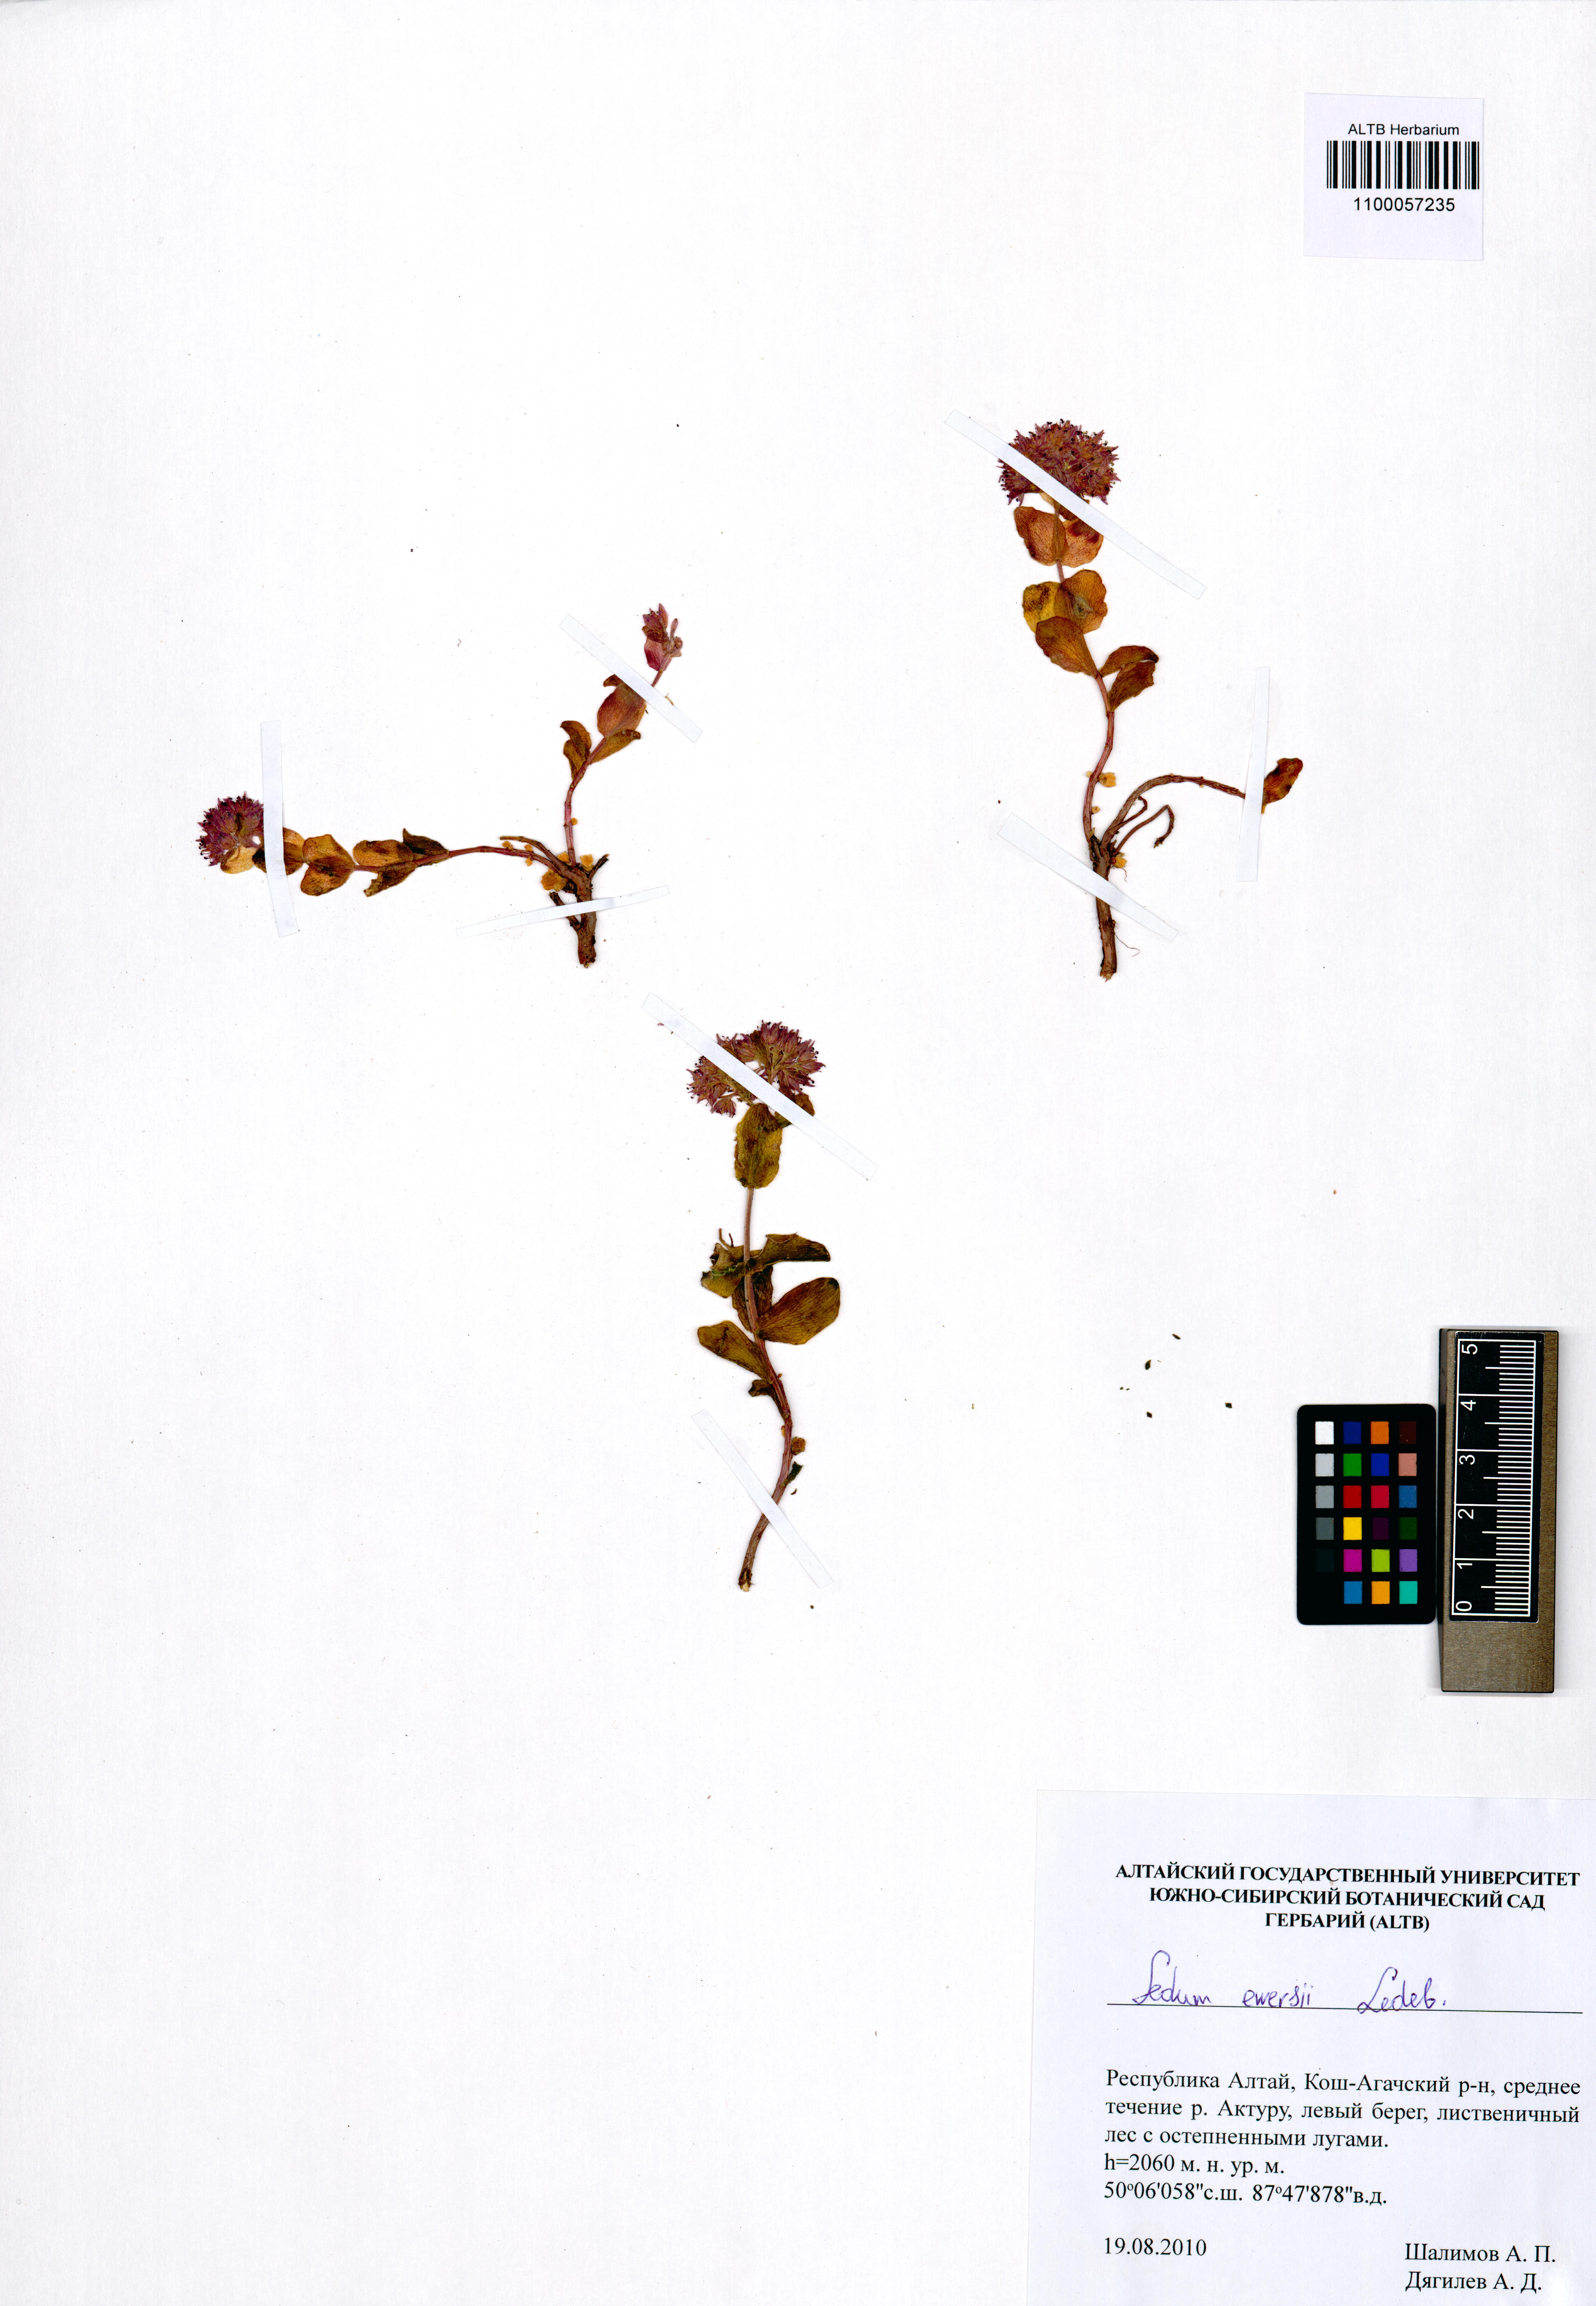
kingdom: Plantae
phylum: Tracheophyta
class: Magnoliopsida
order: Saxifragales
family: Crassulaceae
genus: Hylotelephium
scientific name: Hylotelephium ewersii
